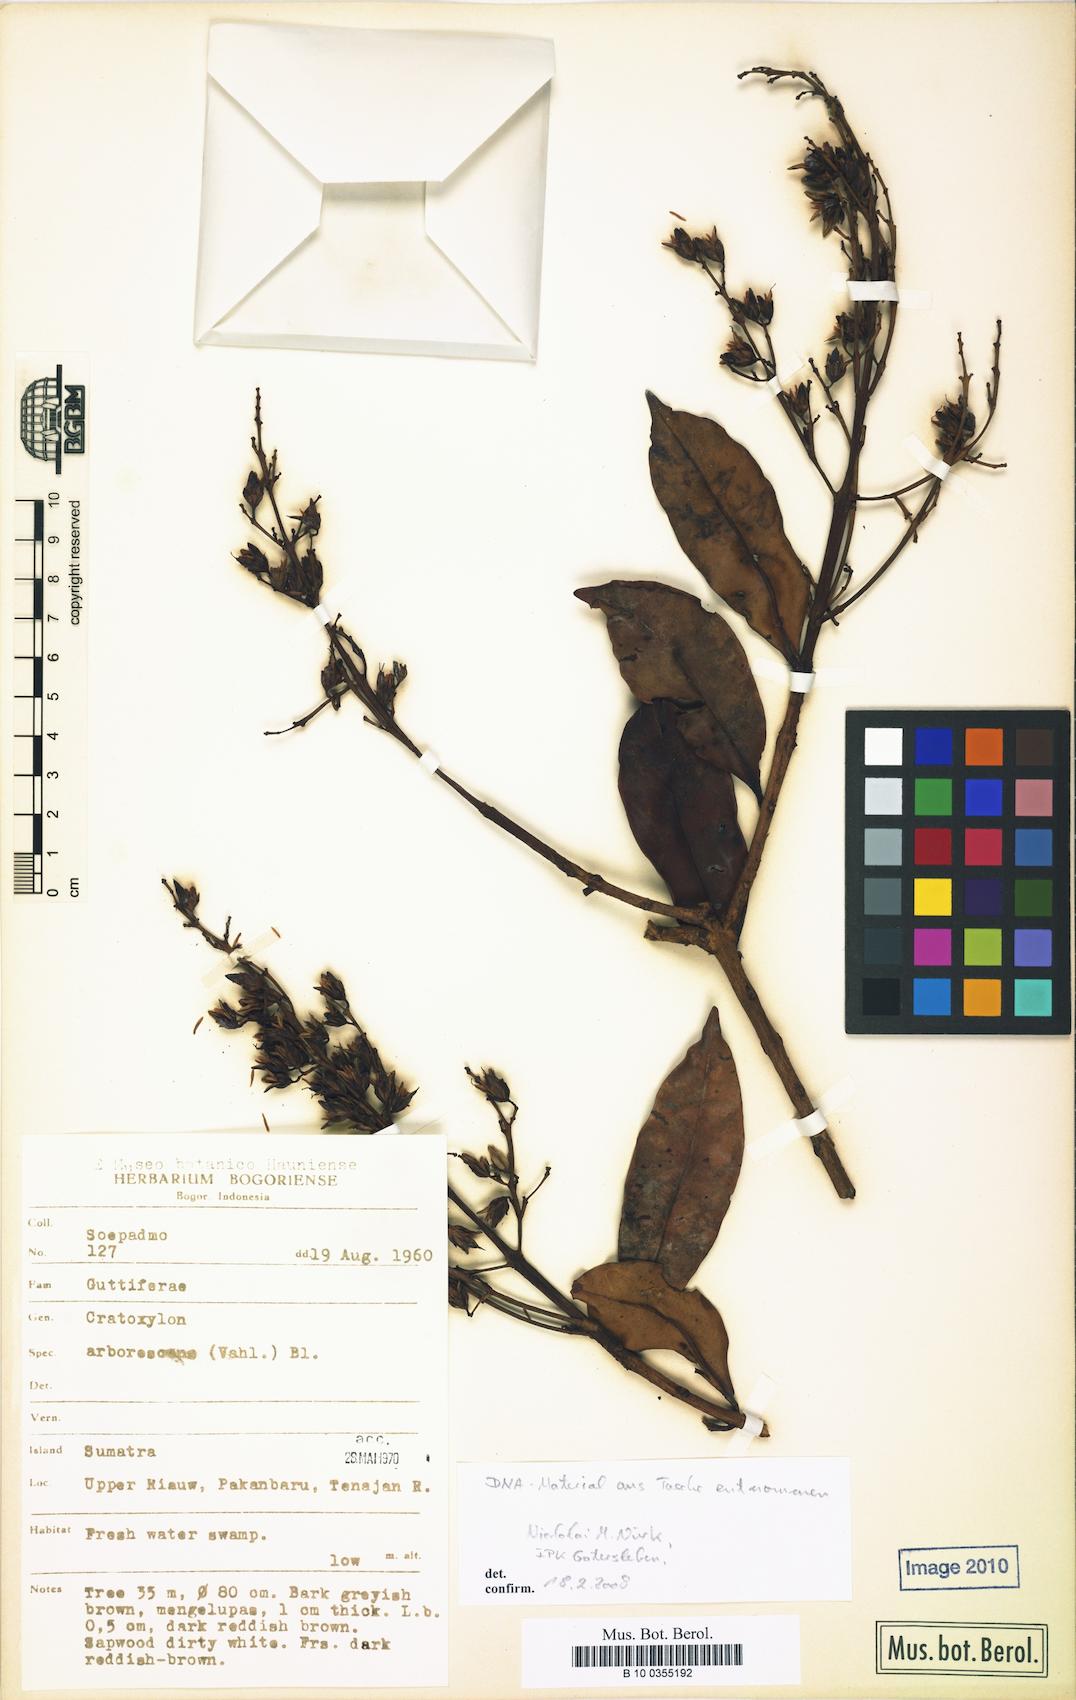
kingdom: Plantae
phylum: Tracheophyta
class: Magnoliopsida
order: Malpighiales
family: Hypericaceae
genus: Cratoxylum
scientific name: Cratoxylum arborescens
